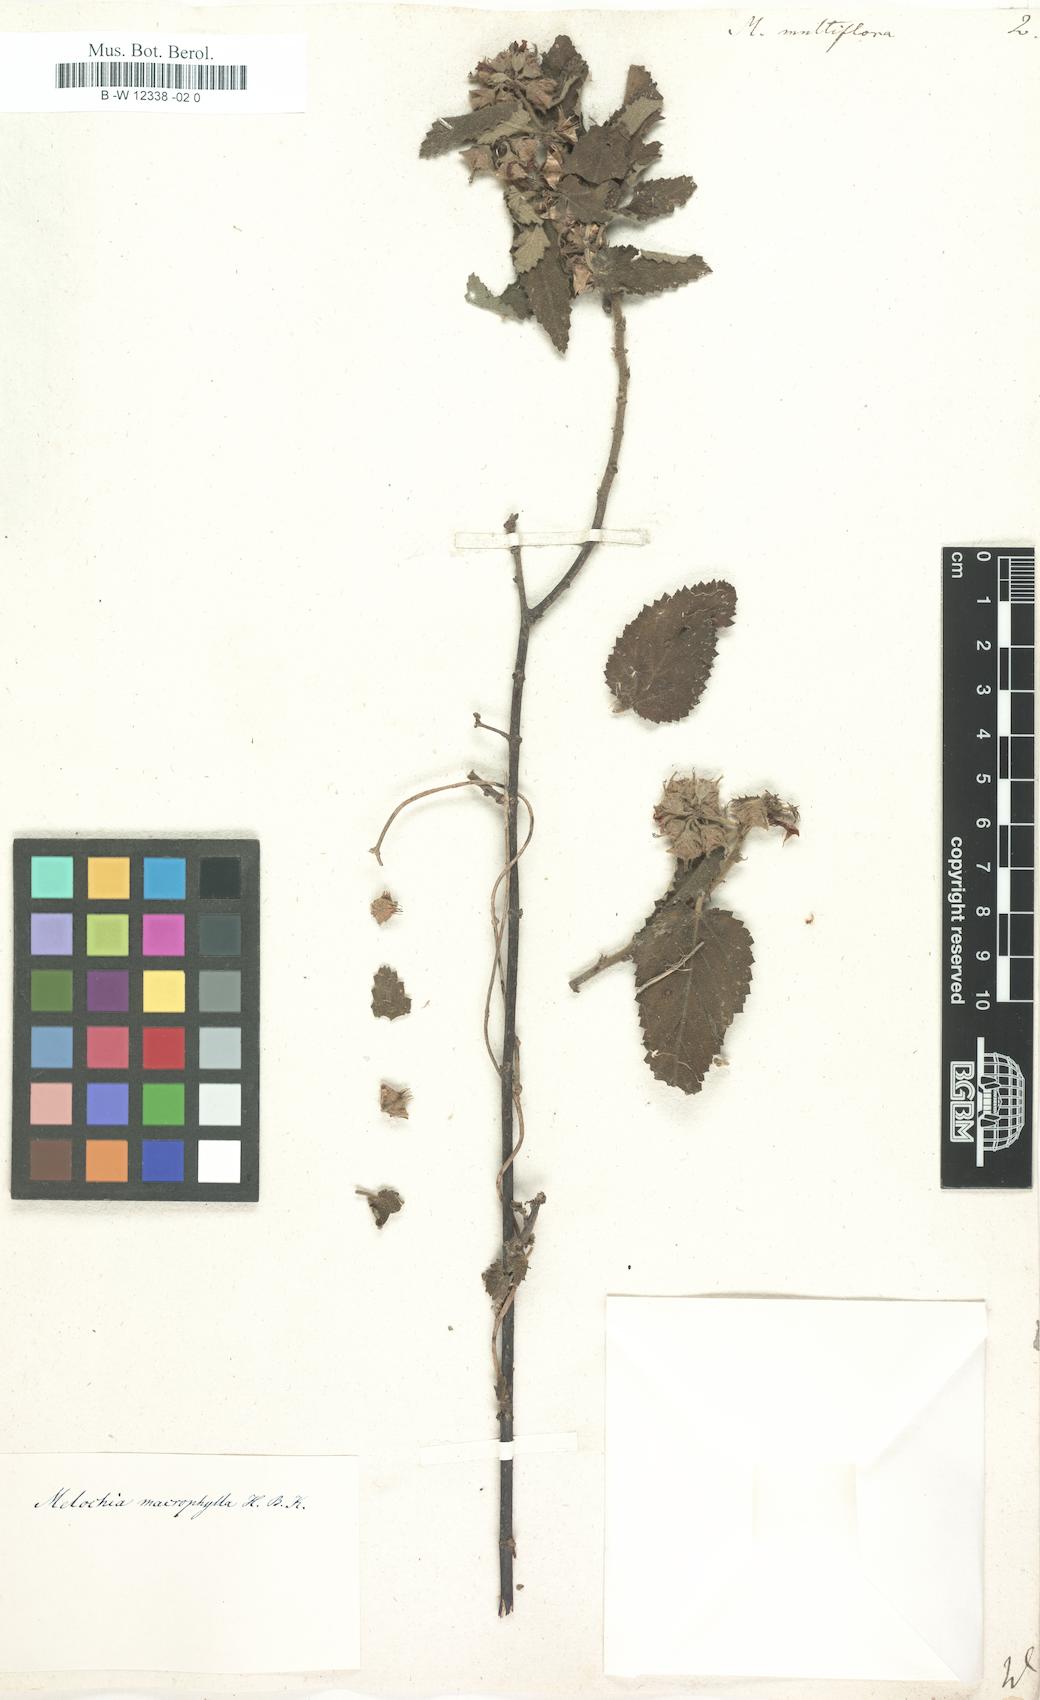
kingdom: Plantae
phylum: Tracheophyta
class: Magnoliopsida
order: Malvales
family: Malvaceae
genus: Melochia
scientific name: Melochia
